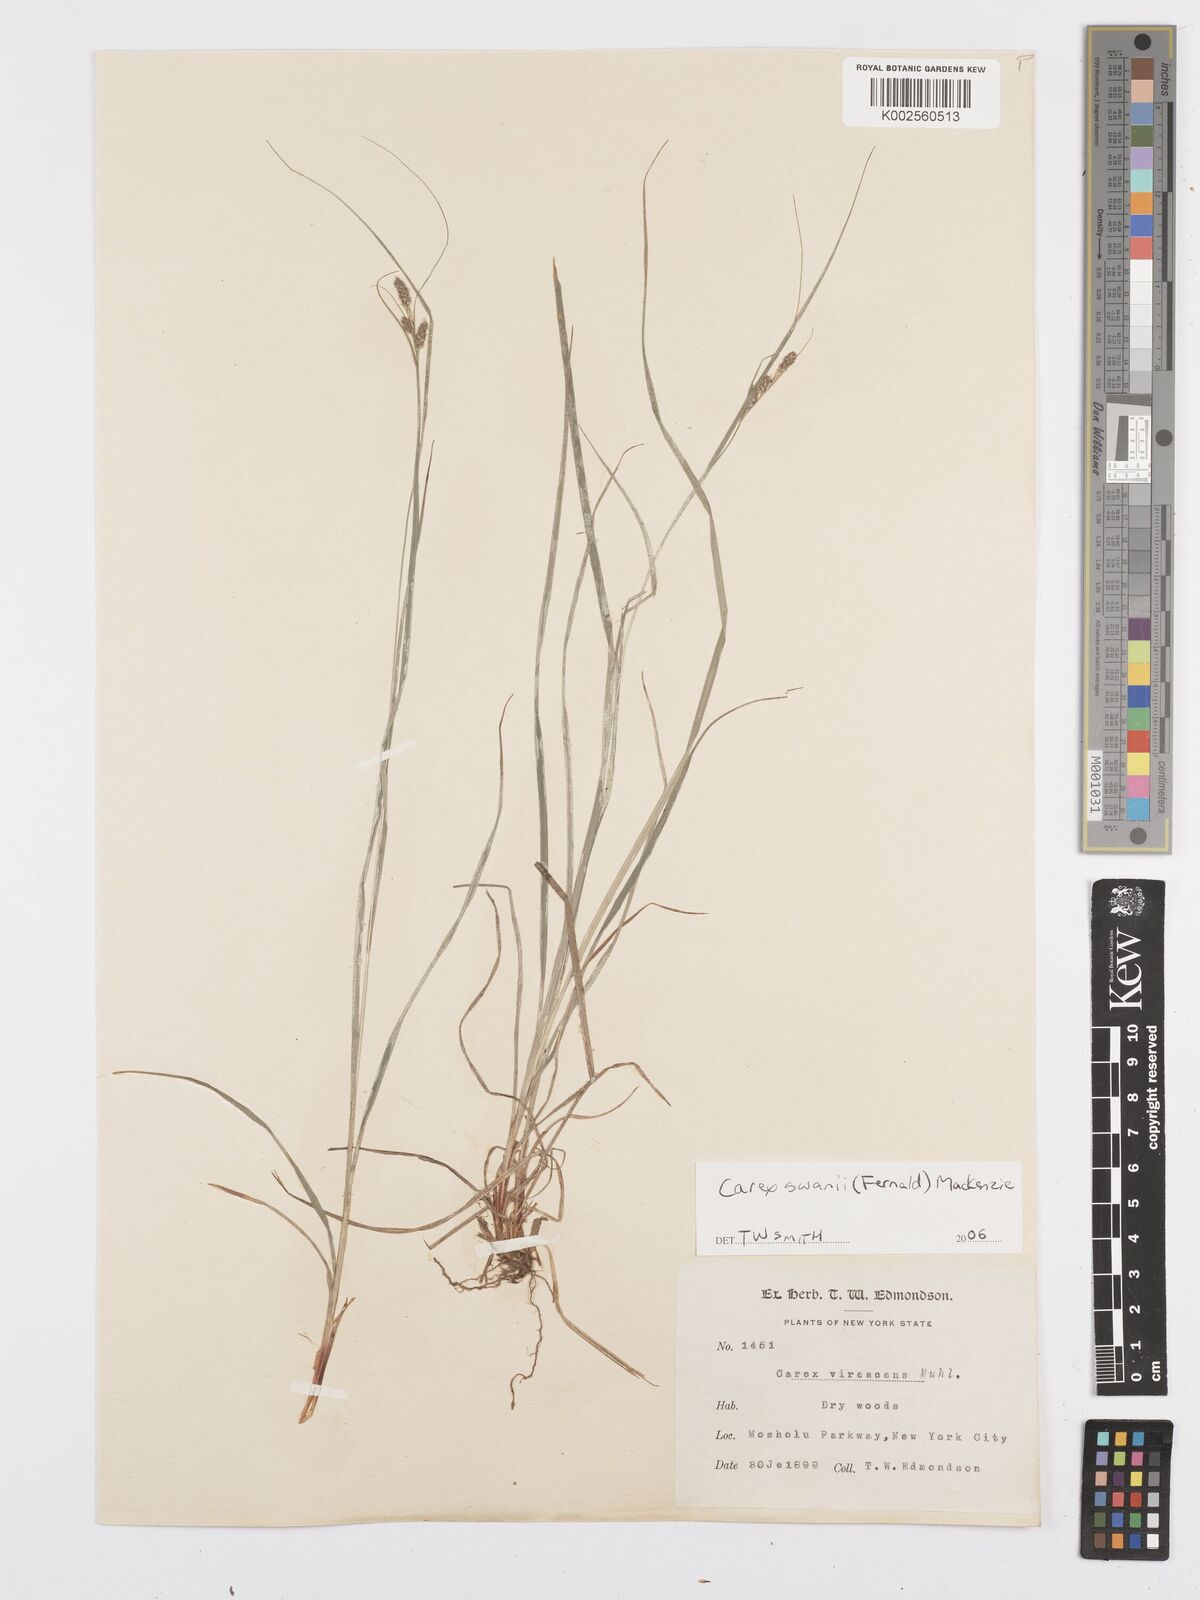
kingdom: Plantae
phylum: Tracheophyta
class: Liliopsida
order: Poales
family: Cyperaceae
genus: Carex
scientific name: Carex swanii
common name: Downy green sedge
